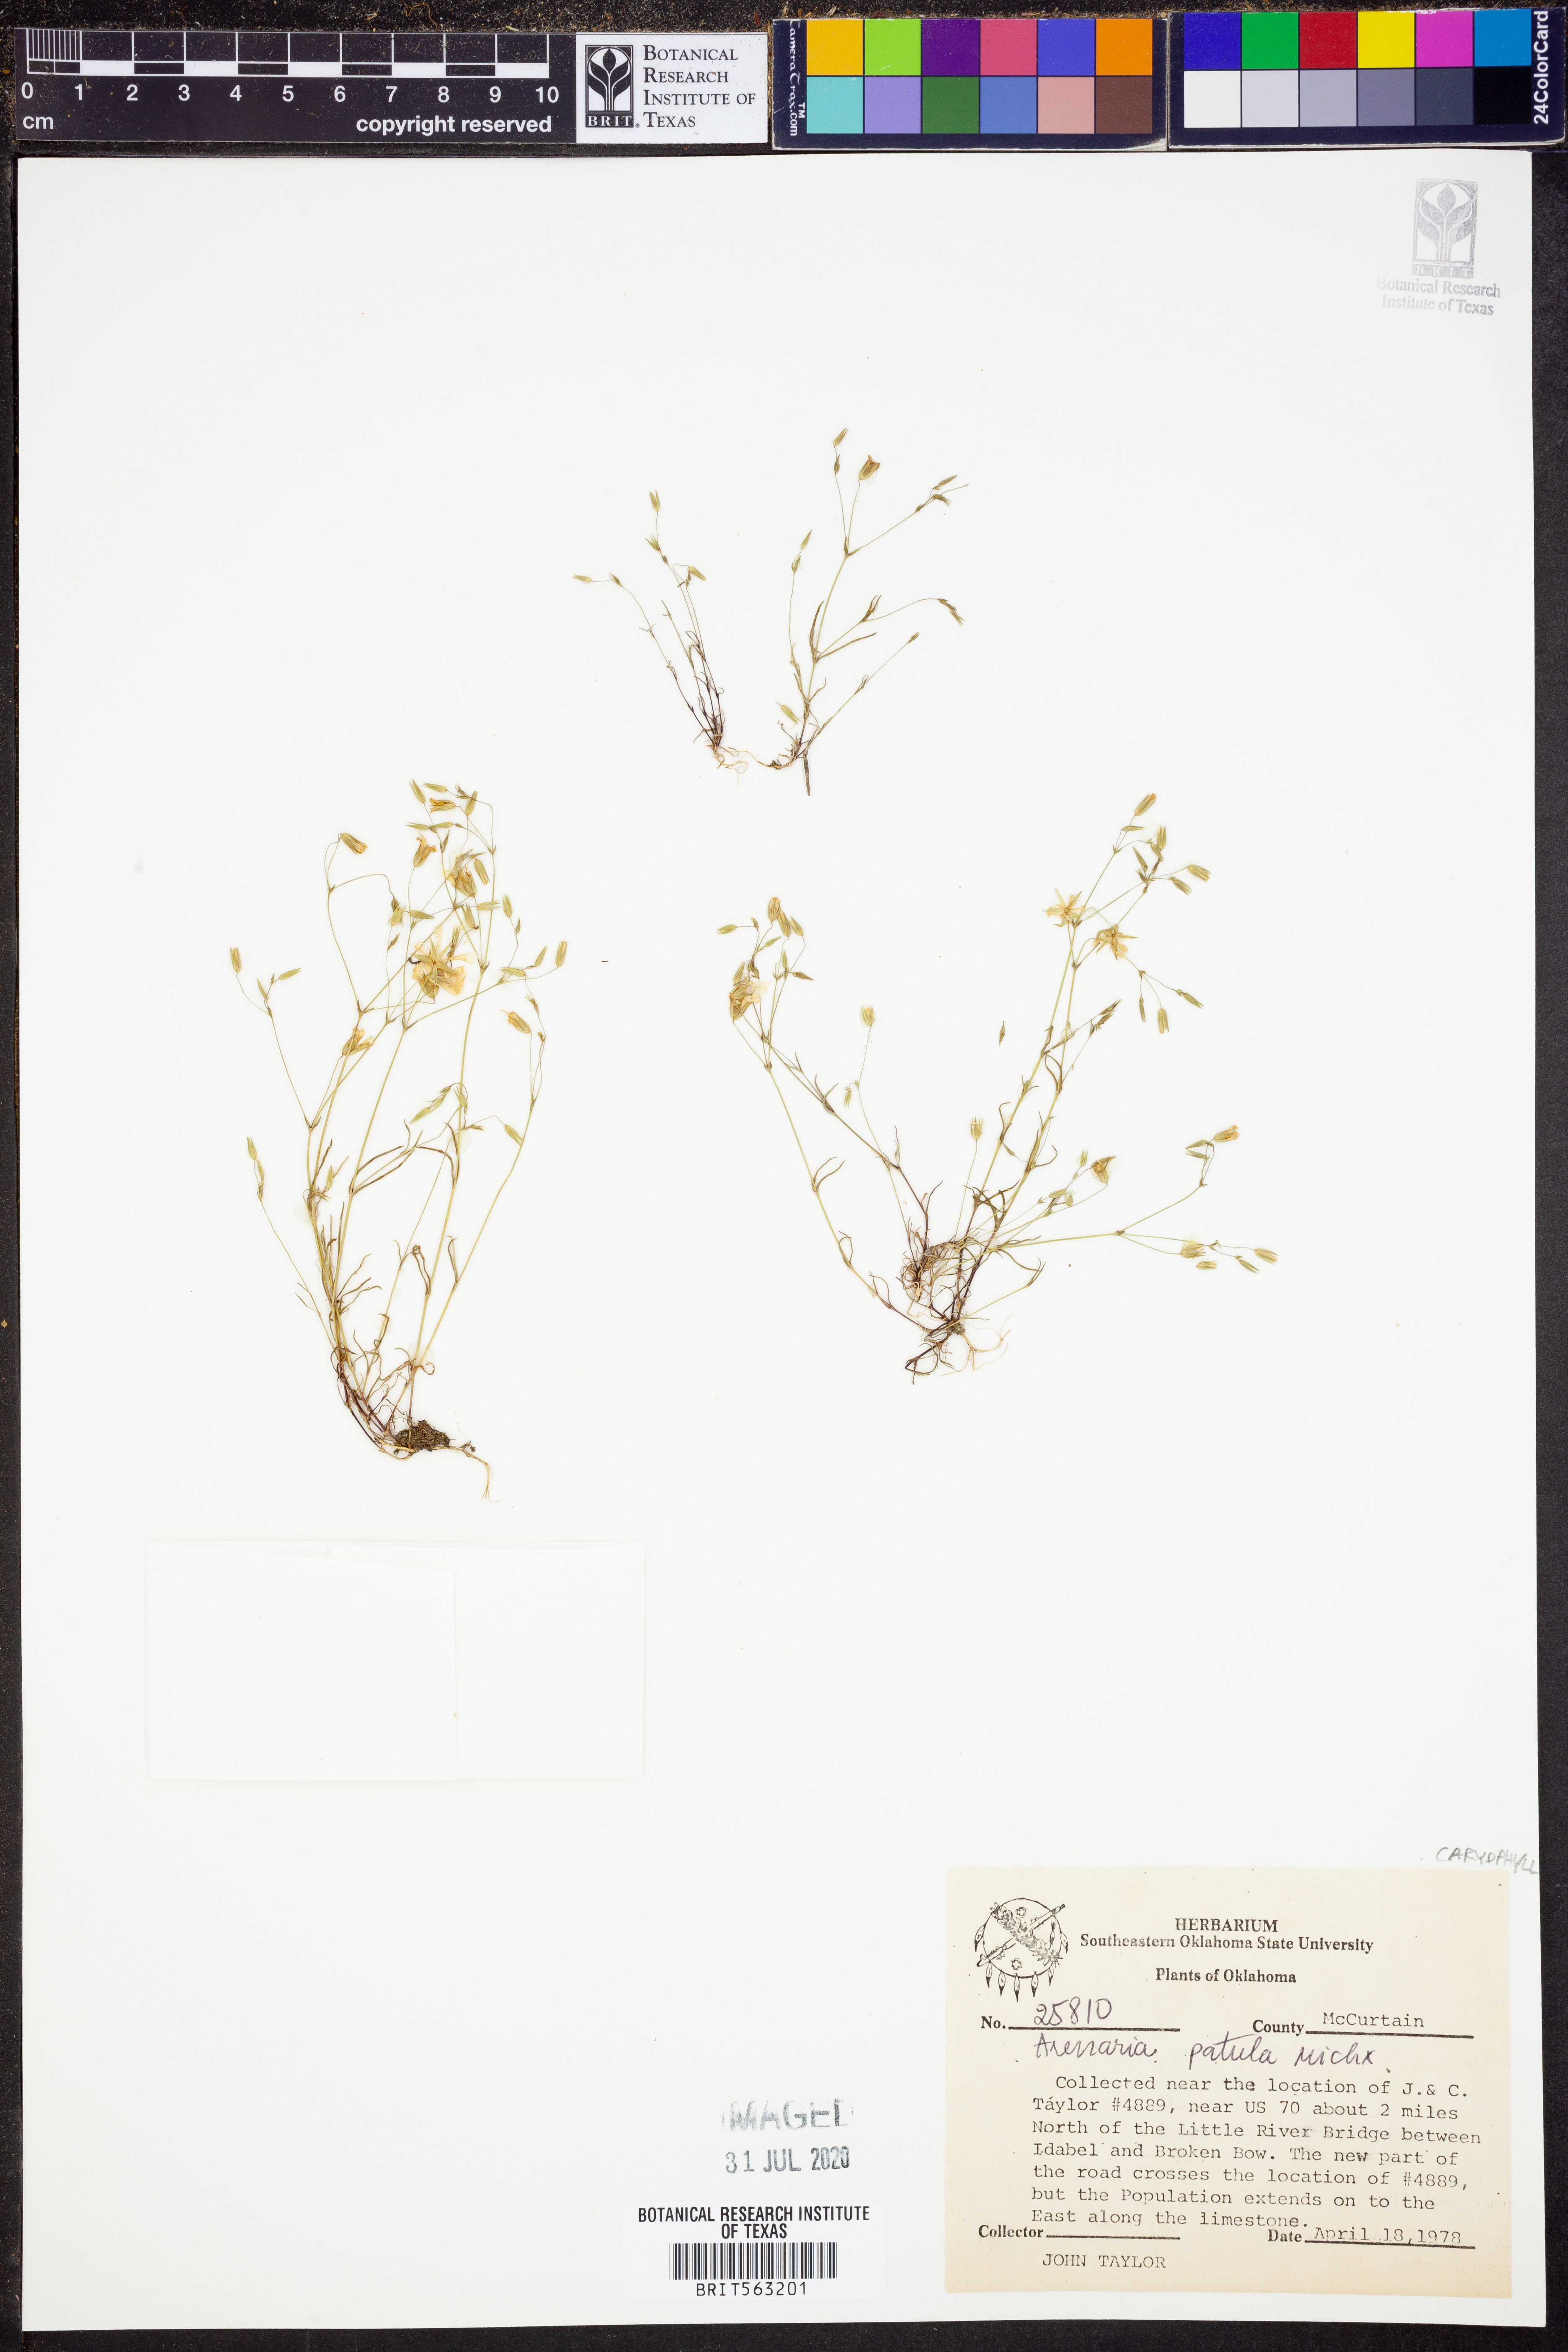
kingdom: Plantae
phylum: Tracheophyta
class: Magnoliopsida
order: Caryophyllales
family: Caryophyllaceae
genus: Mononeuria
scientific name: Mononeuria patula
